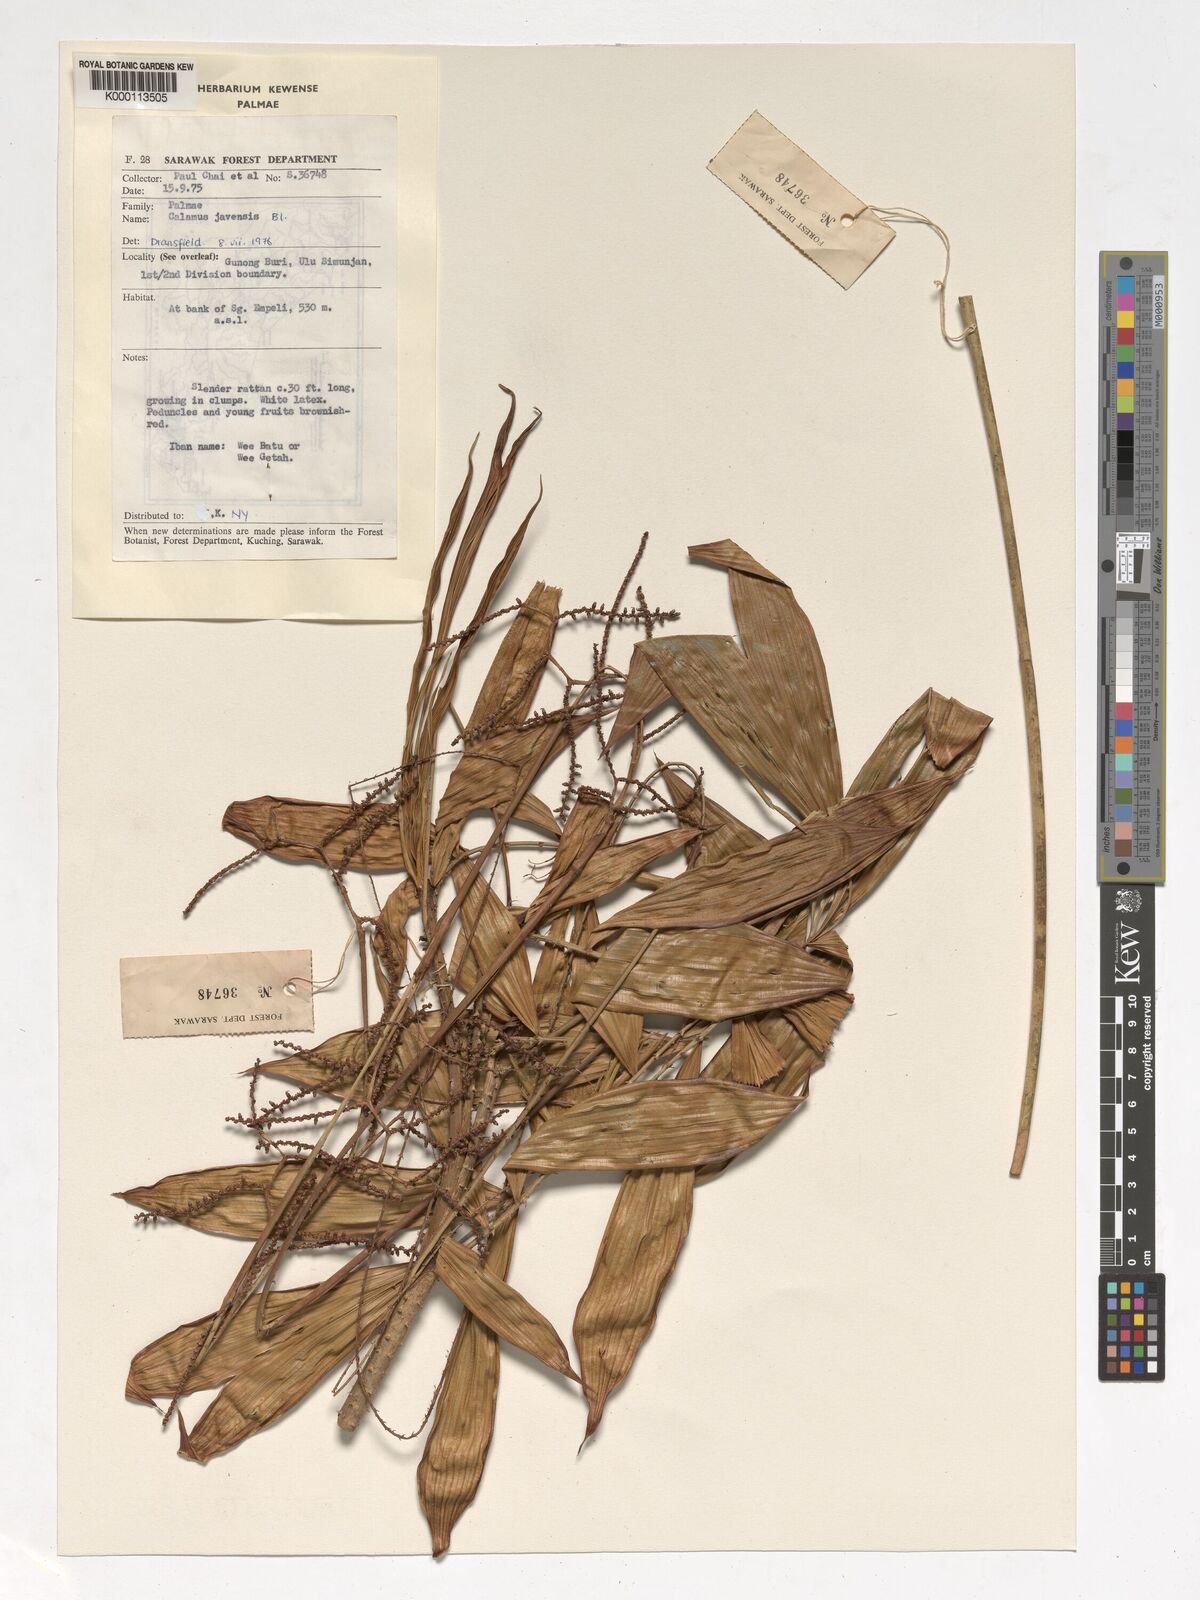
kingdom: Plantae
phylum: Tracheophyta
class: Liliopsida
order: Arecales
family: Arecaceae
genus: Calamus
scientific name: Calamus javensis
